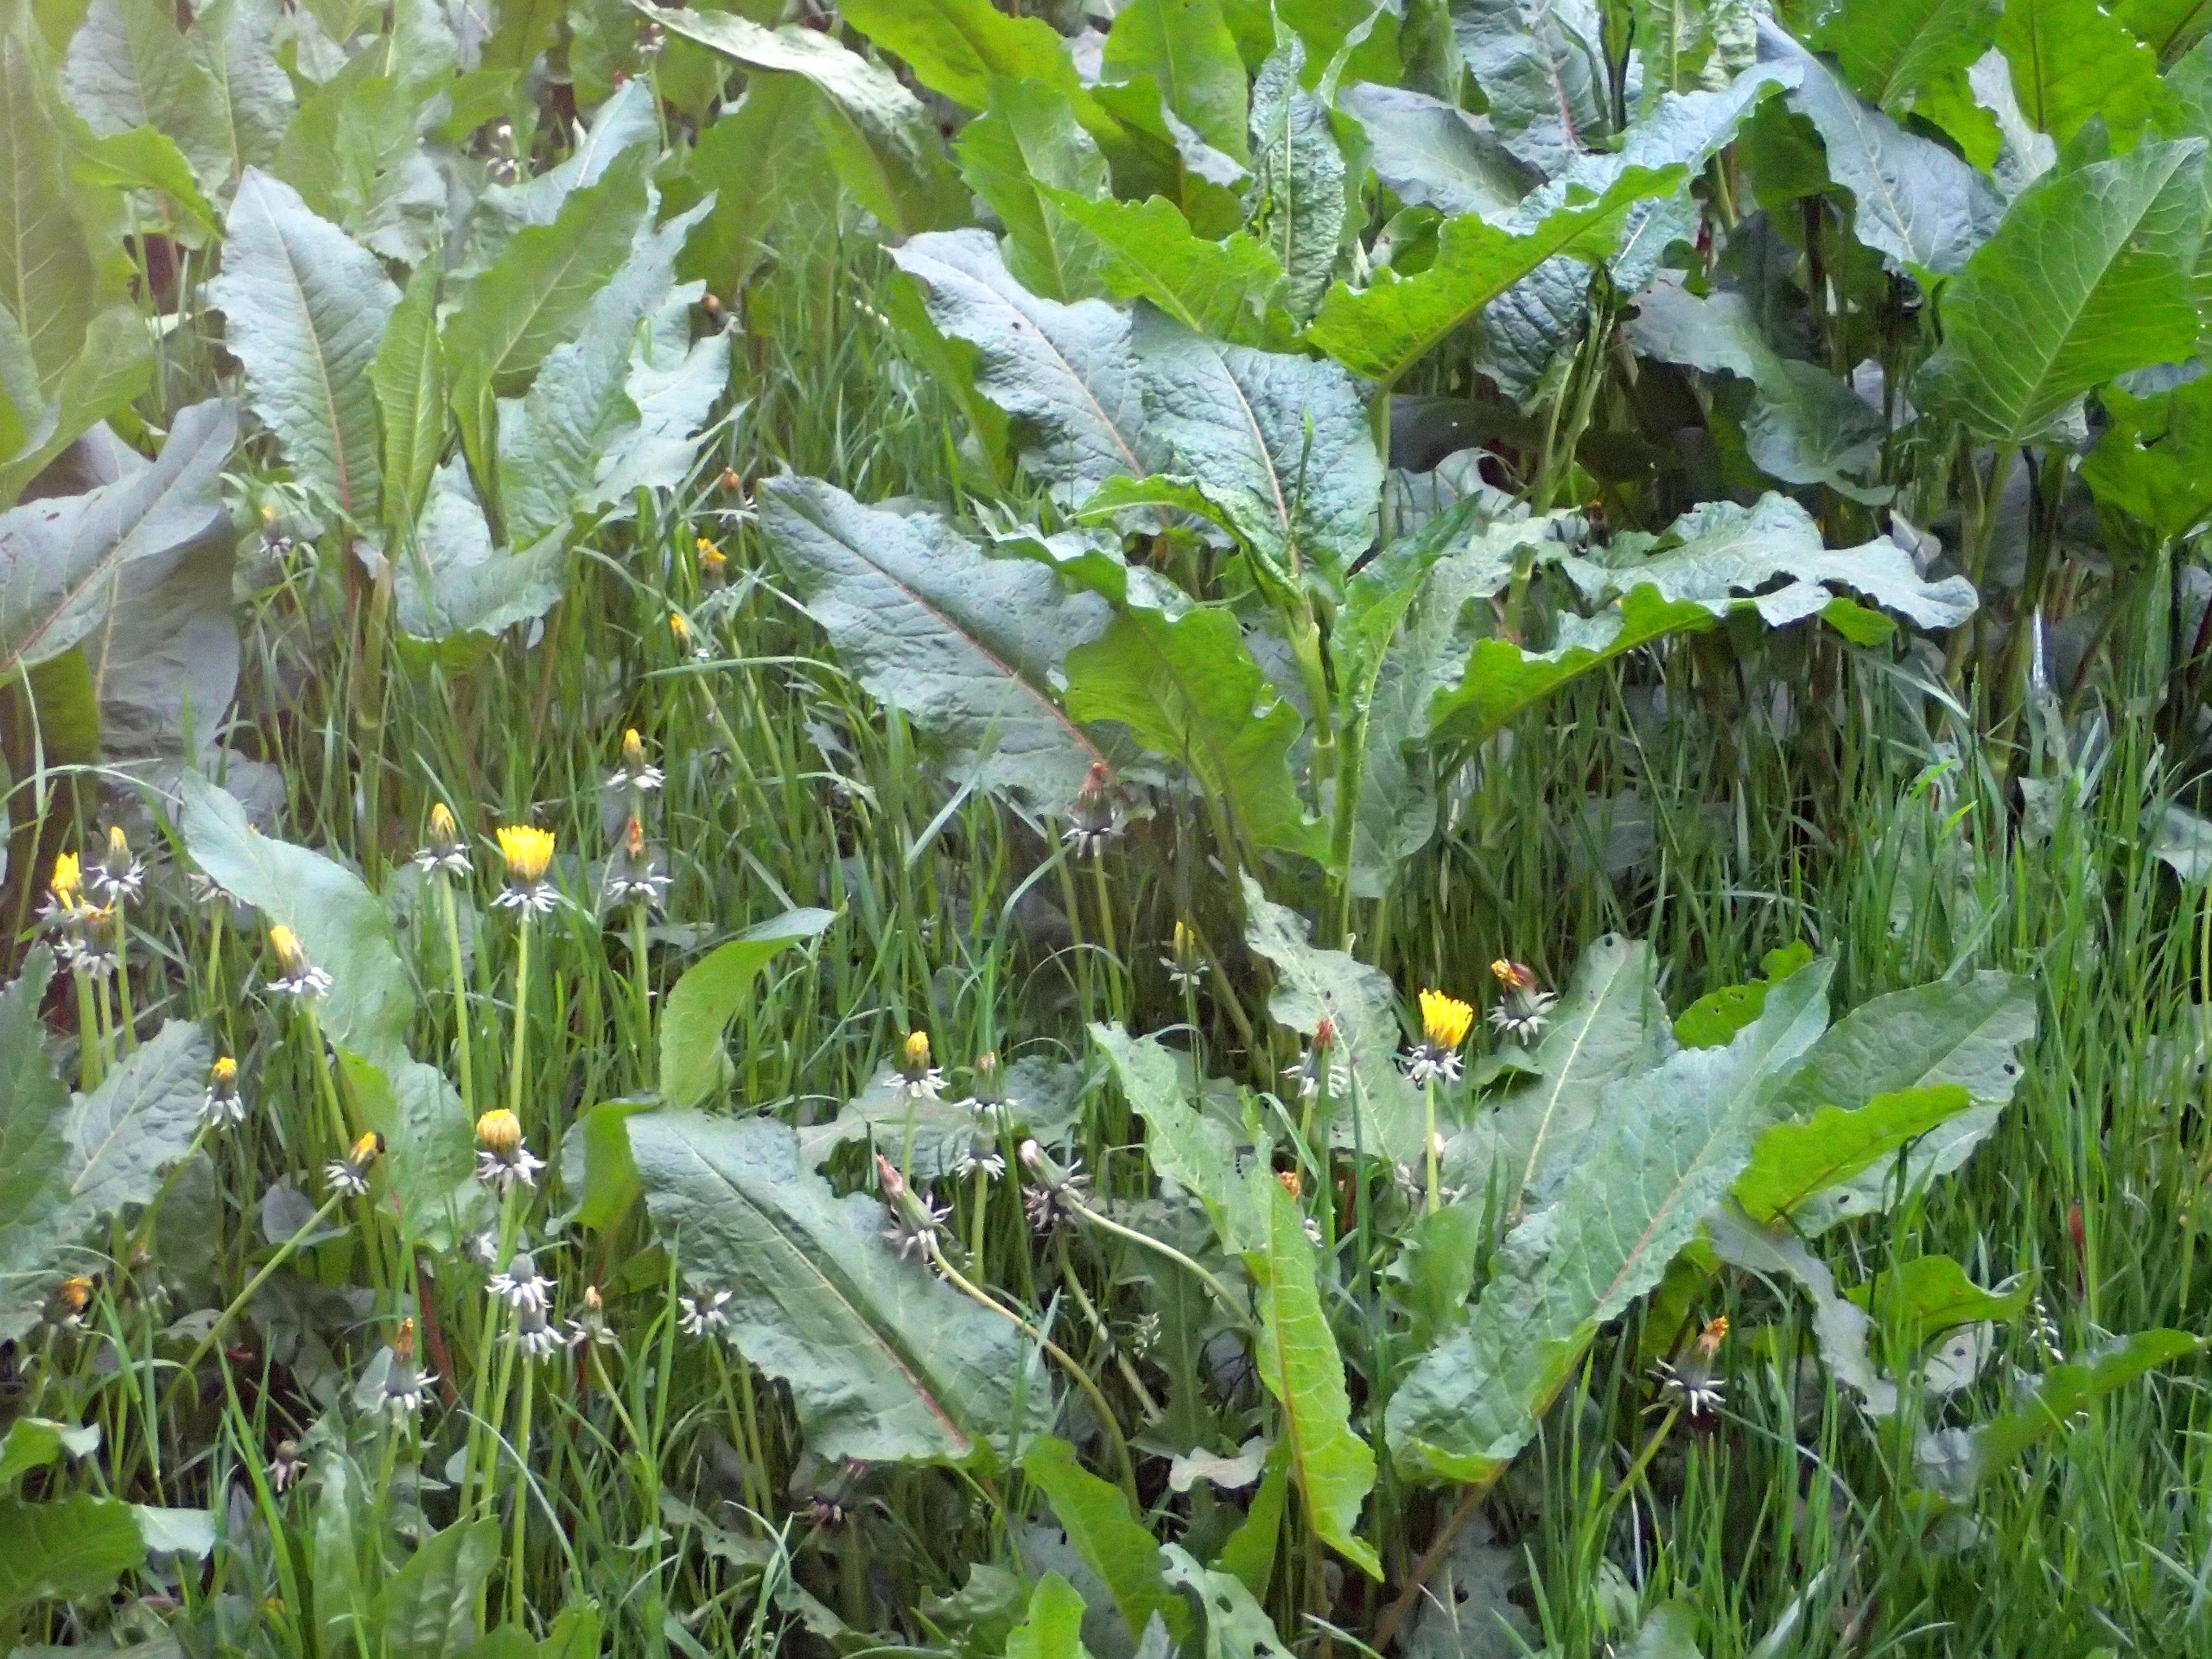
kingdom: Plantae
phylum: Tracheophyta
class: Magnoliopsida
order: Caryophyllales
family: Polygonaceae
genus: Rumex
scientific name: Rumex obtusifolius
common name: Butbladet skræppe
